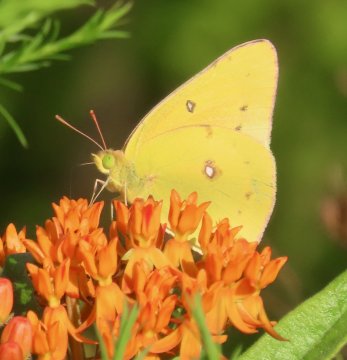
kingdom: Animalia
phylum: Arthropoda
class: Insecta
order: Lepidoptera
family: Pieridae
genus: Colias
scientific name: Colias eurytheme
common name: Orange Sulphur
